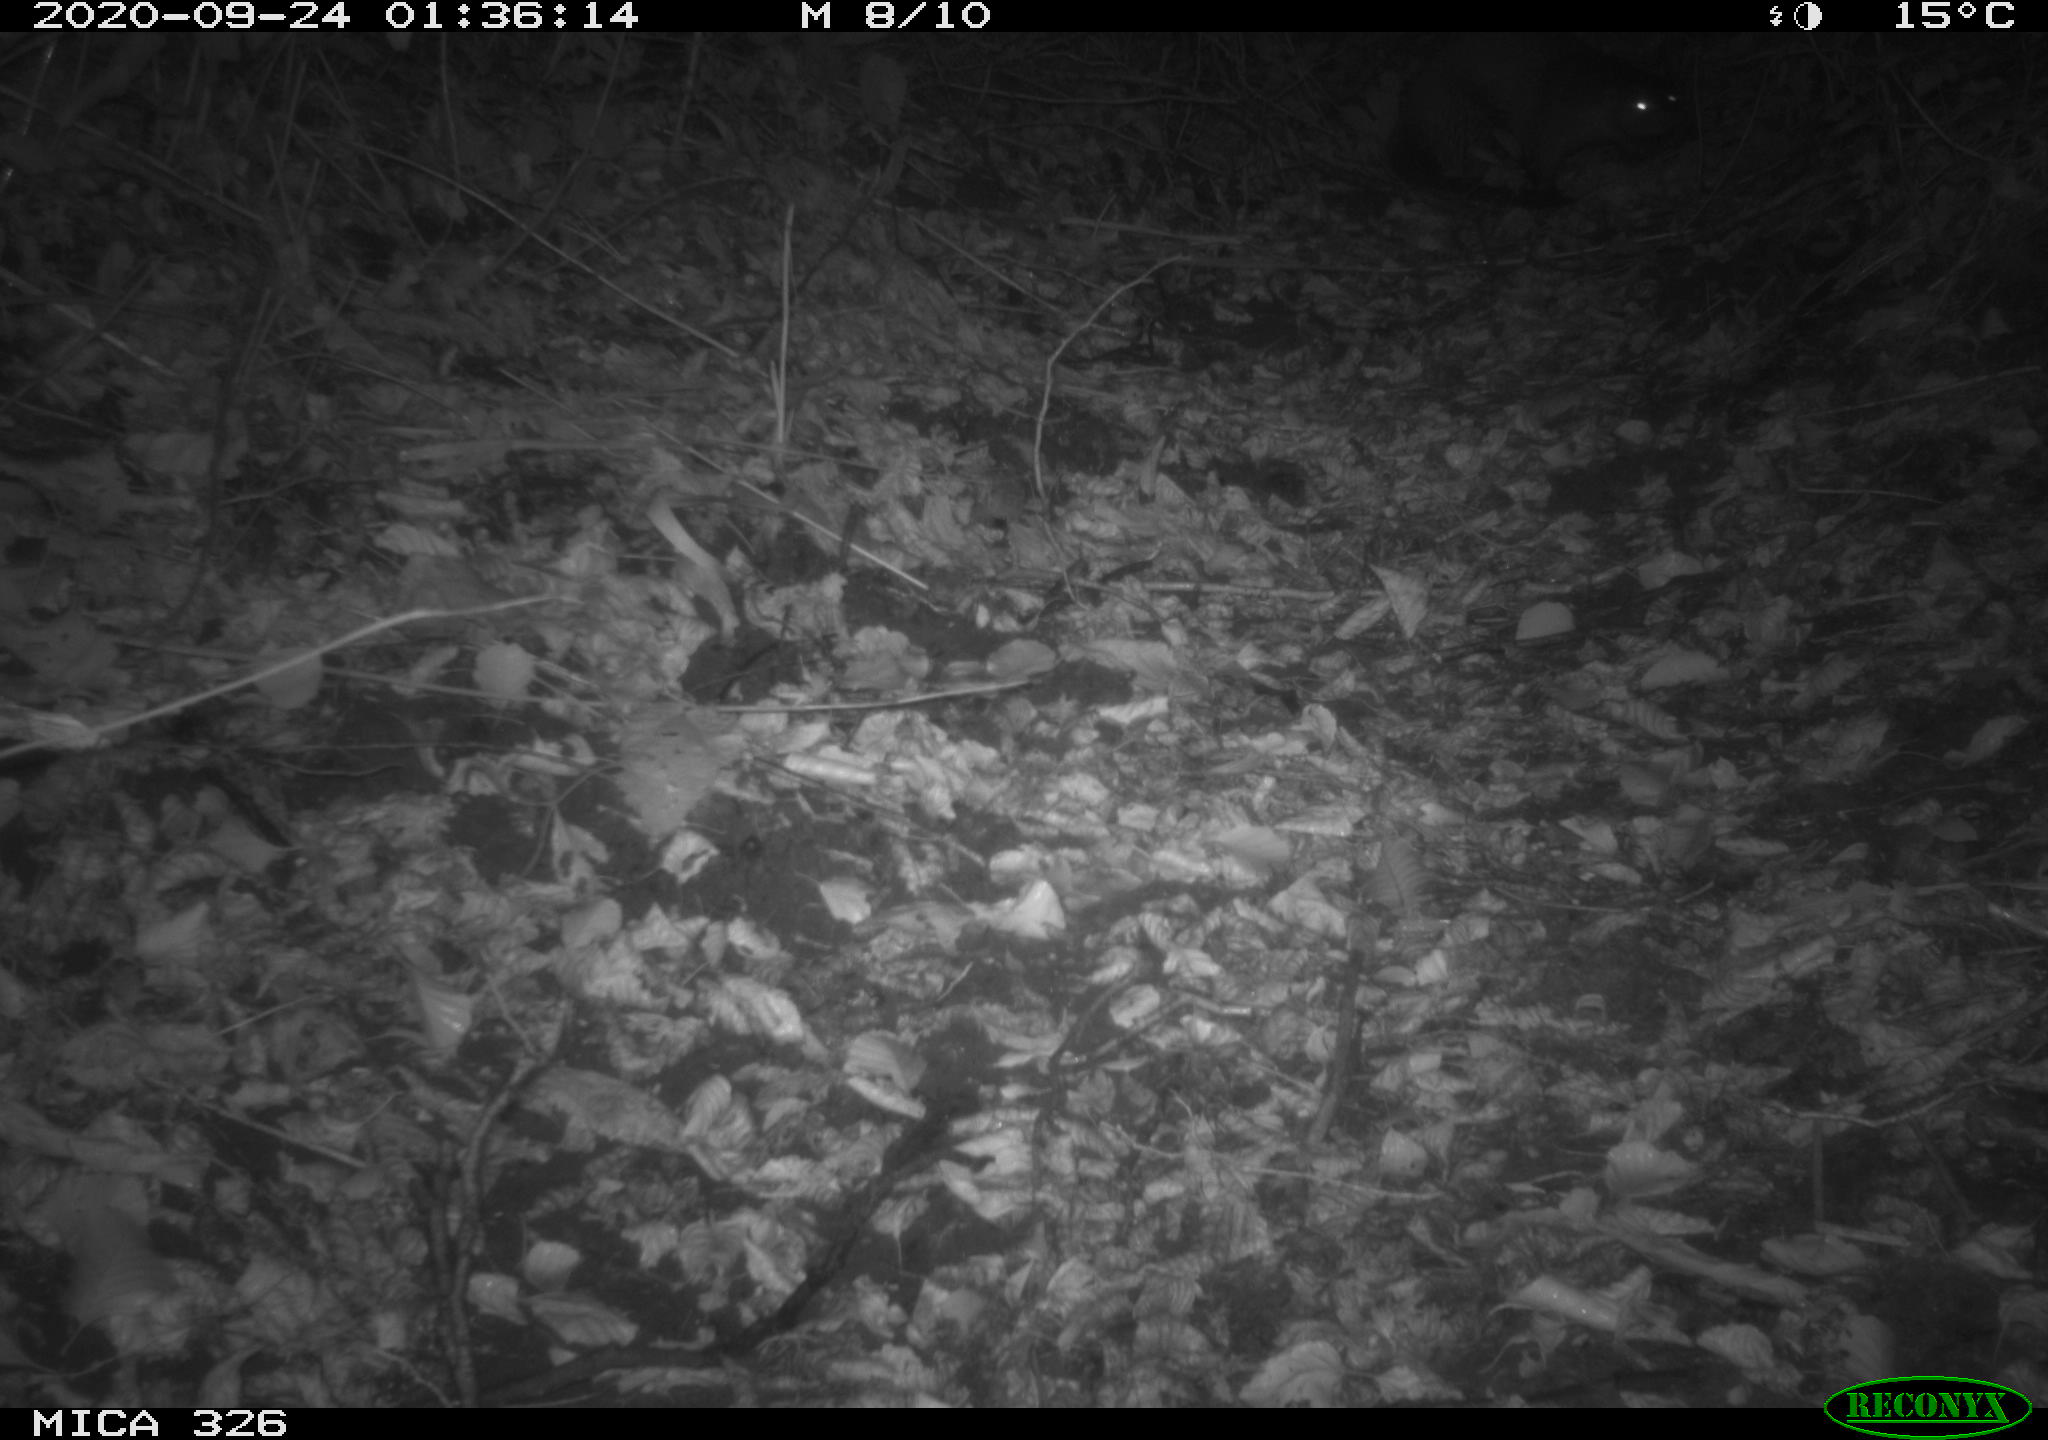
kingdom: Animalia
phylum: Chordata
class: Mammalia
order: Carnivora
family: Mustelidae
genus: Lutra
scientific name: Lutra lutra
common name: European otter
